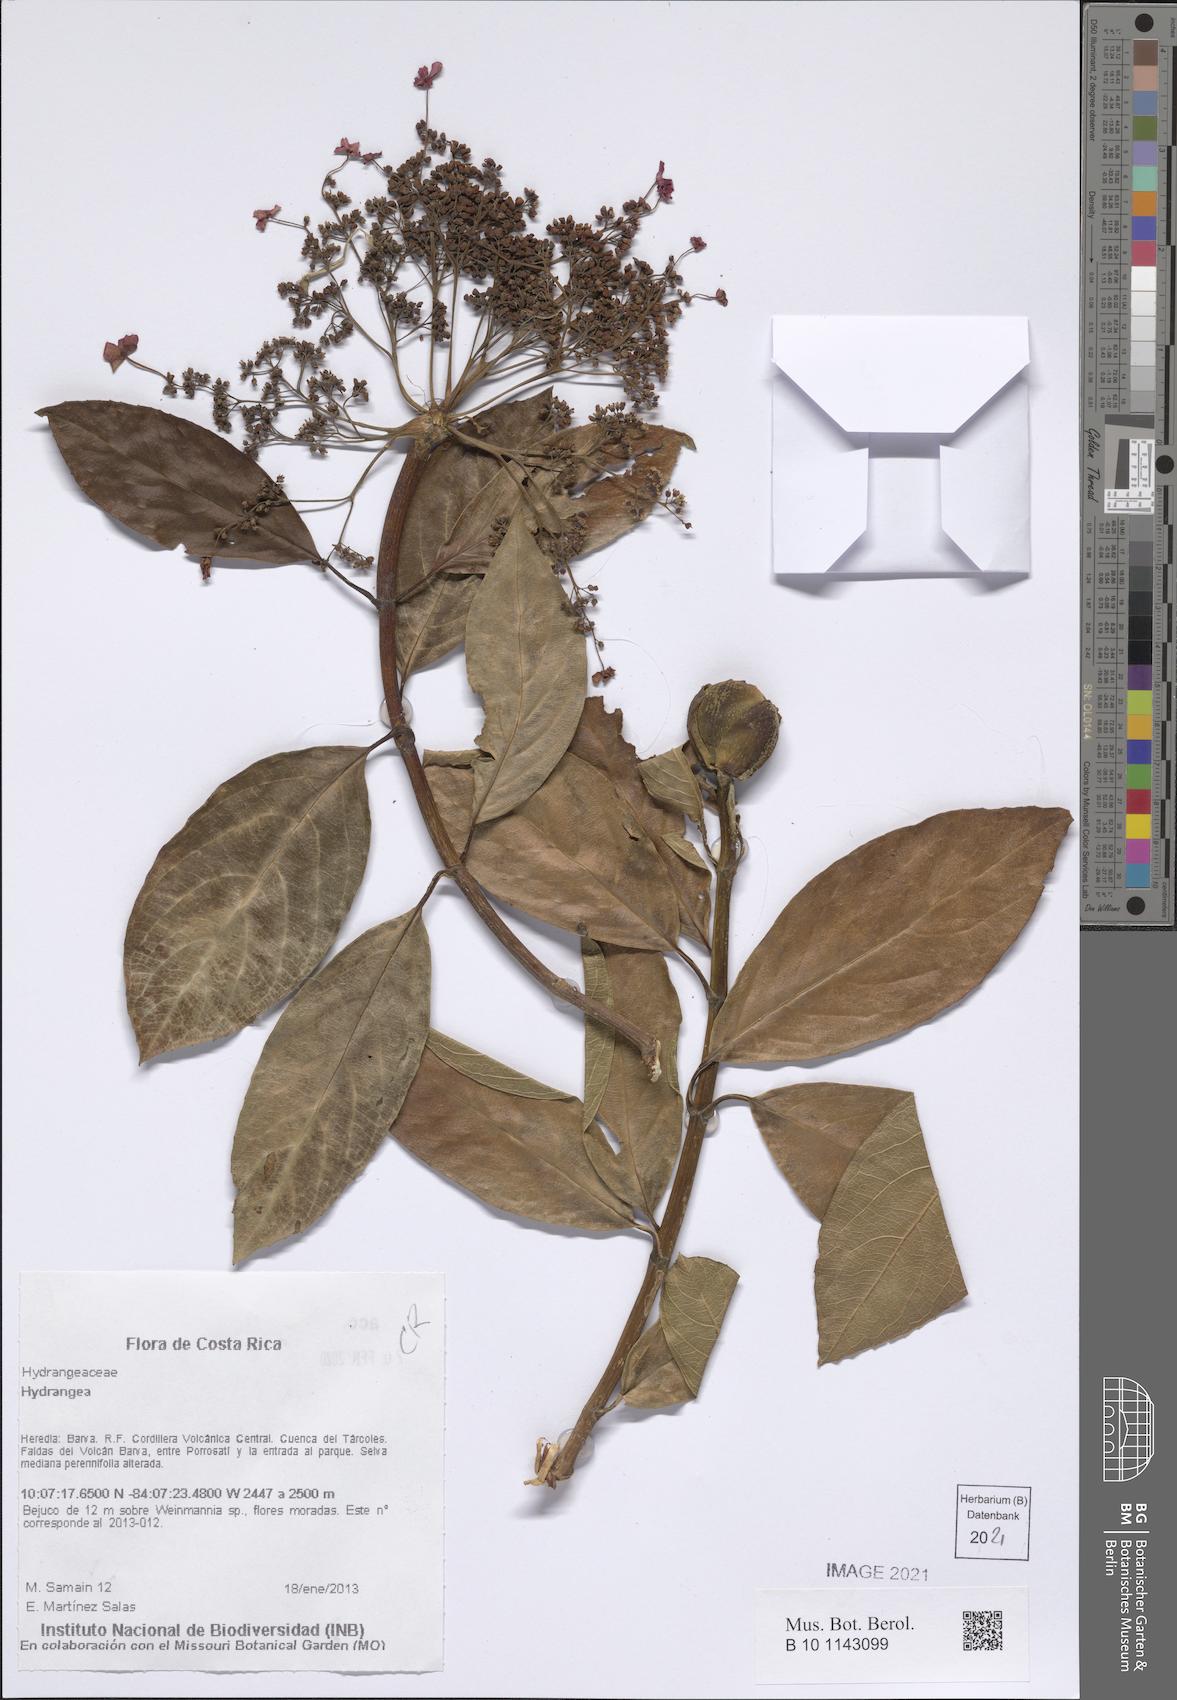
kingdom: Plantae
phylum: Tracheophyta
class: Magnoliopsida
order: Cornales
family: Hydrangeaceae
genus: Hydrangea
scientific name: Hydrangea
